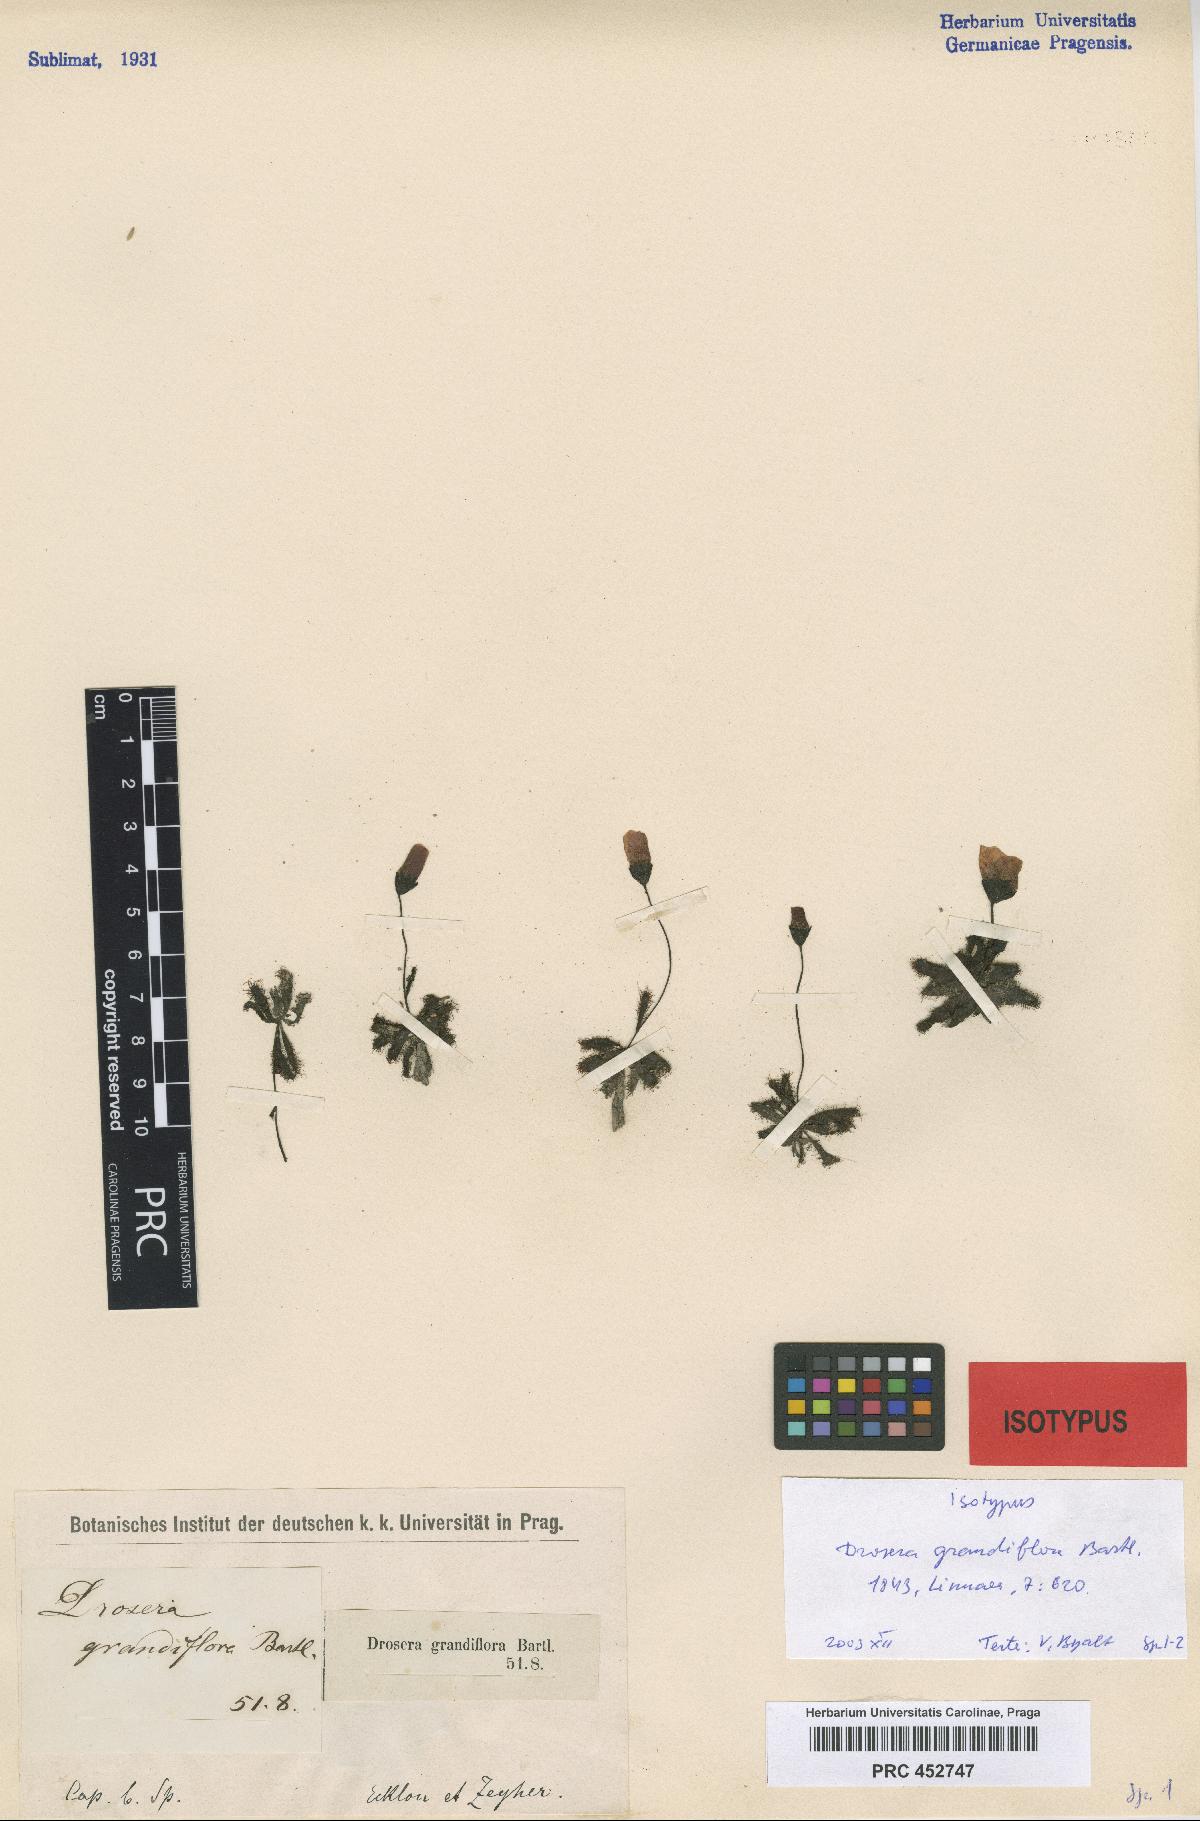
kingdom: Plantae
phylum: Tracheophyta
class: Magnoliopsida
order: Caryophyllales
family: Droseraceae
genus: Drosera
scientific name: Drosera pauciflora
